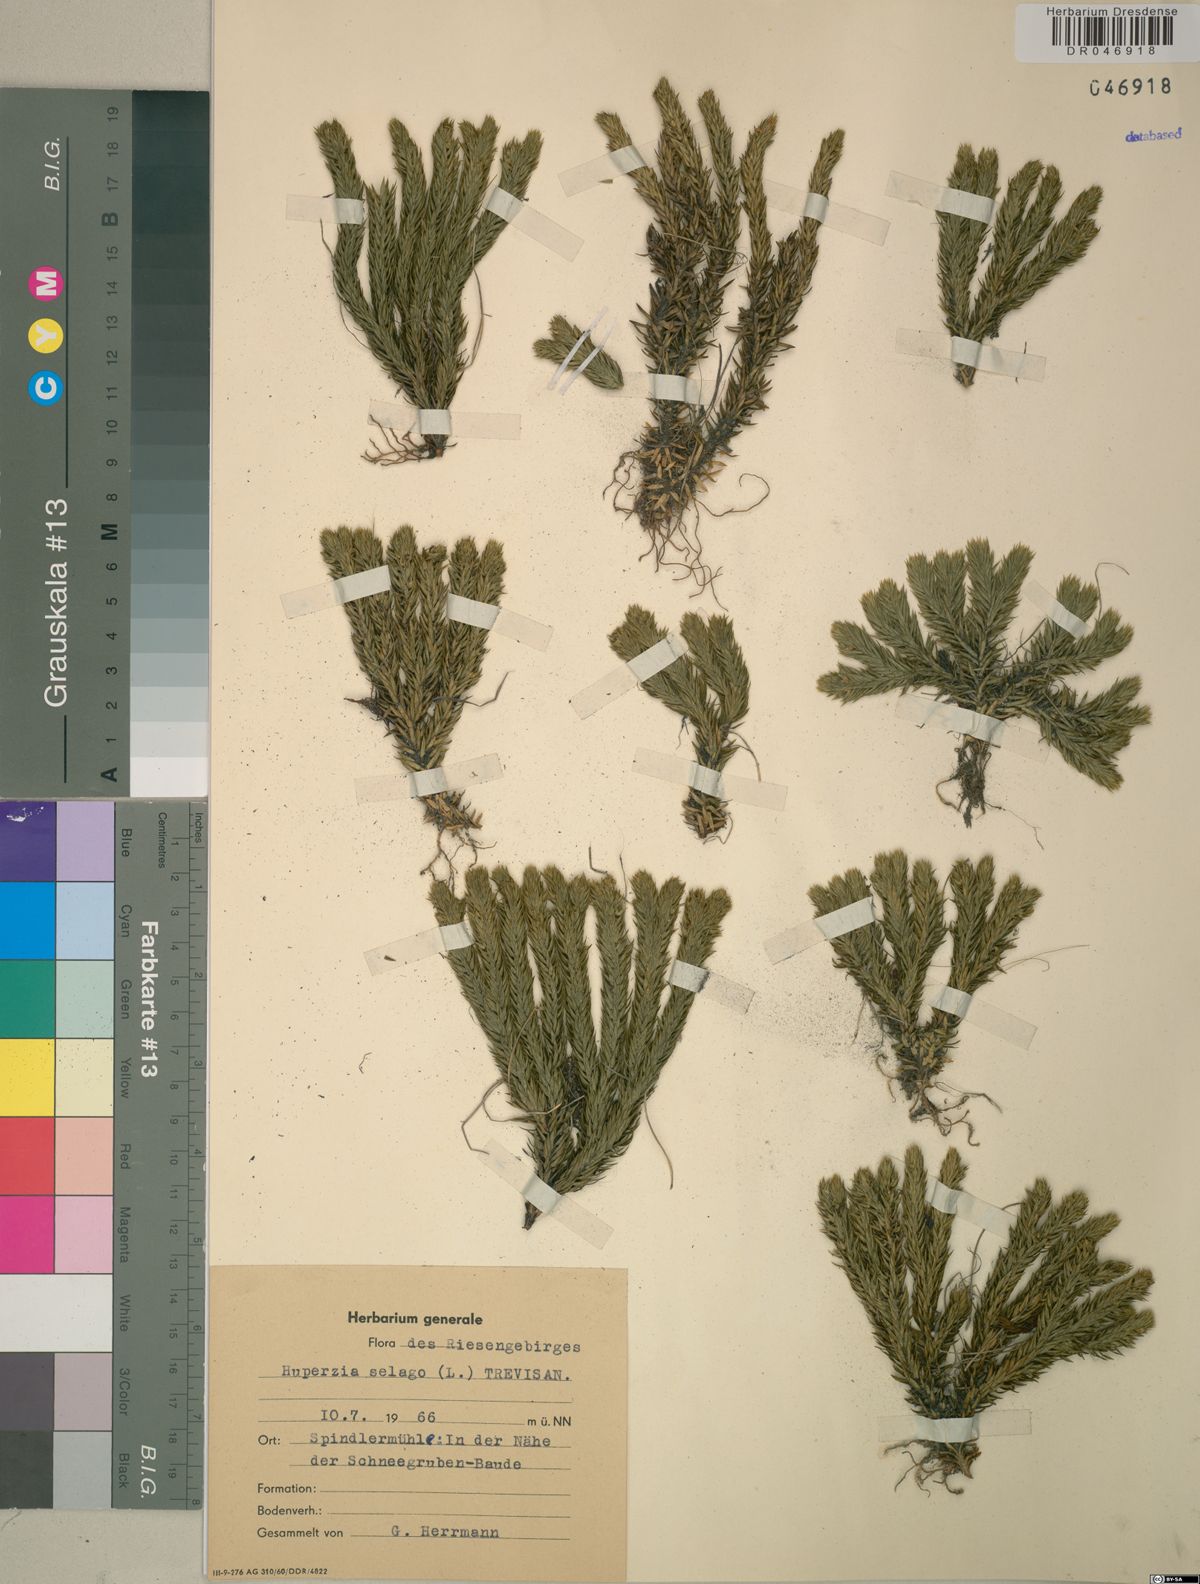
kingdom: Plantae
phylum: Tracheophyta
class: Lycopodiopsida
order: Lycopodiales
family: Lycopodiaceae
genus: Huperzia
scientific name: Huperzia selago
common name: Northern firmoss
